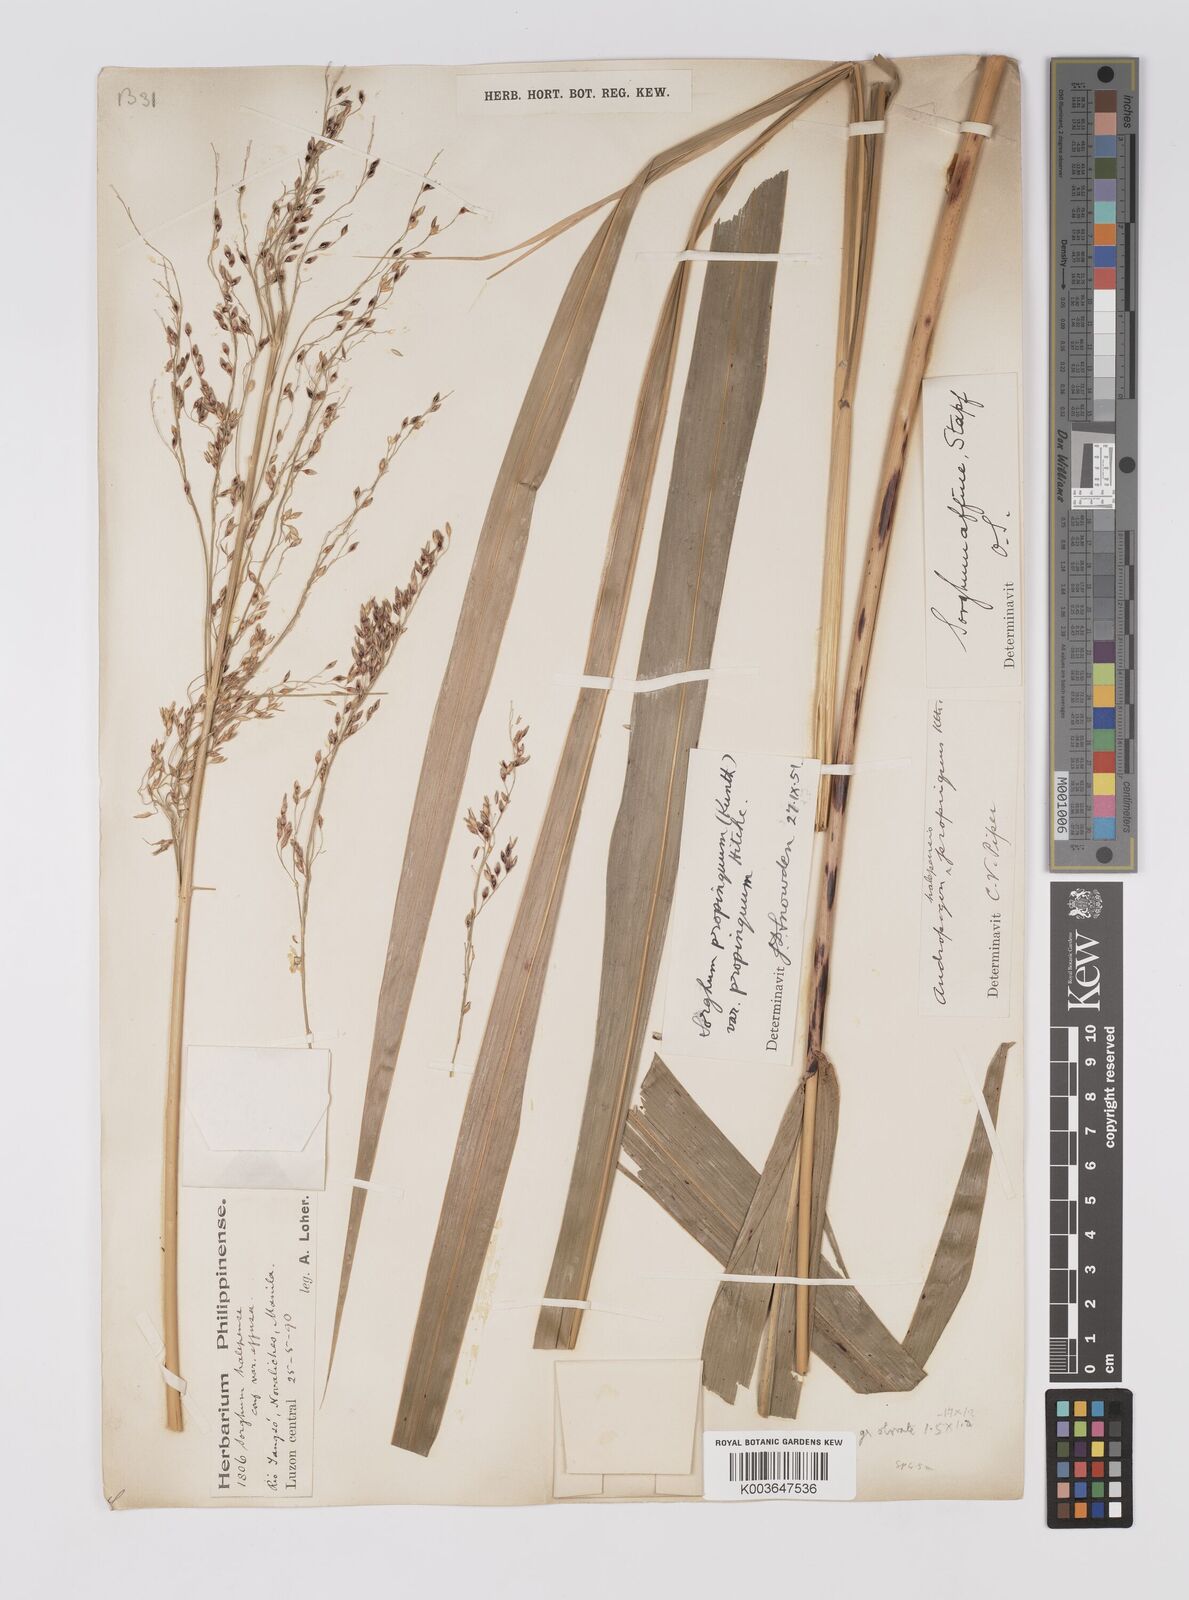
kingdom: Plantae
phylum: Tracheophyta
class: Liliopsida
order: Poales
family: Poaceae
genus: Sorghum
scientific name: Sorghum propinquum
